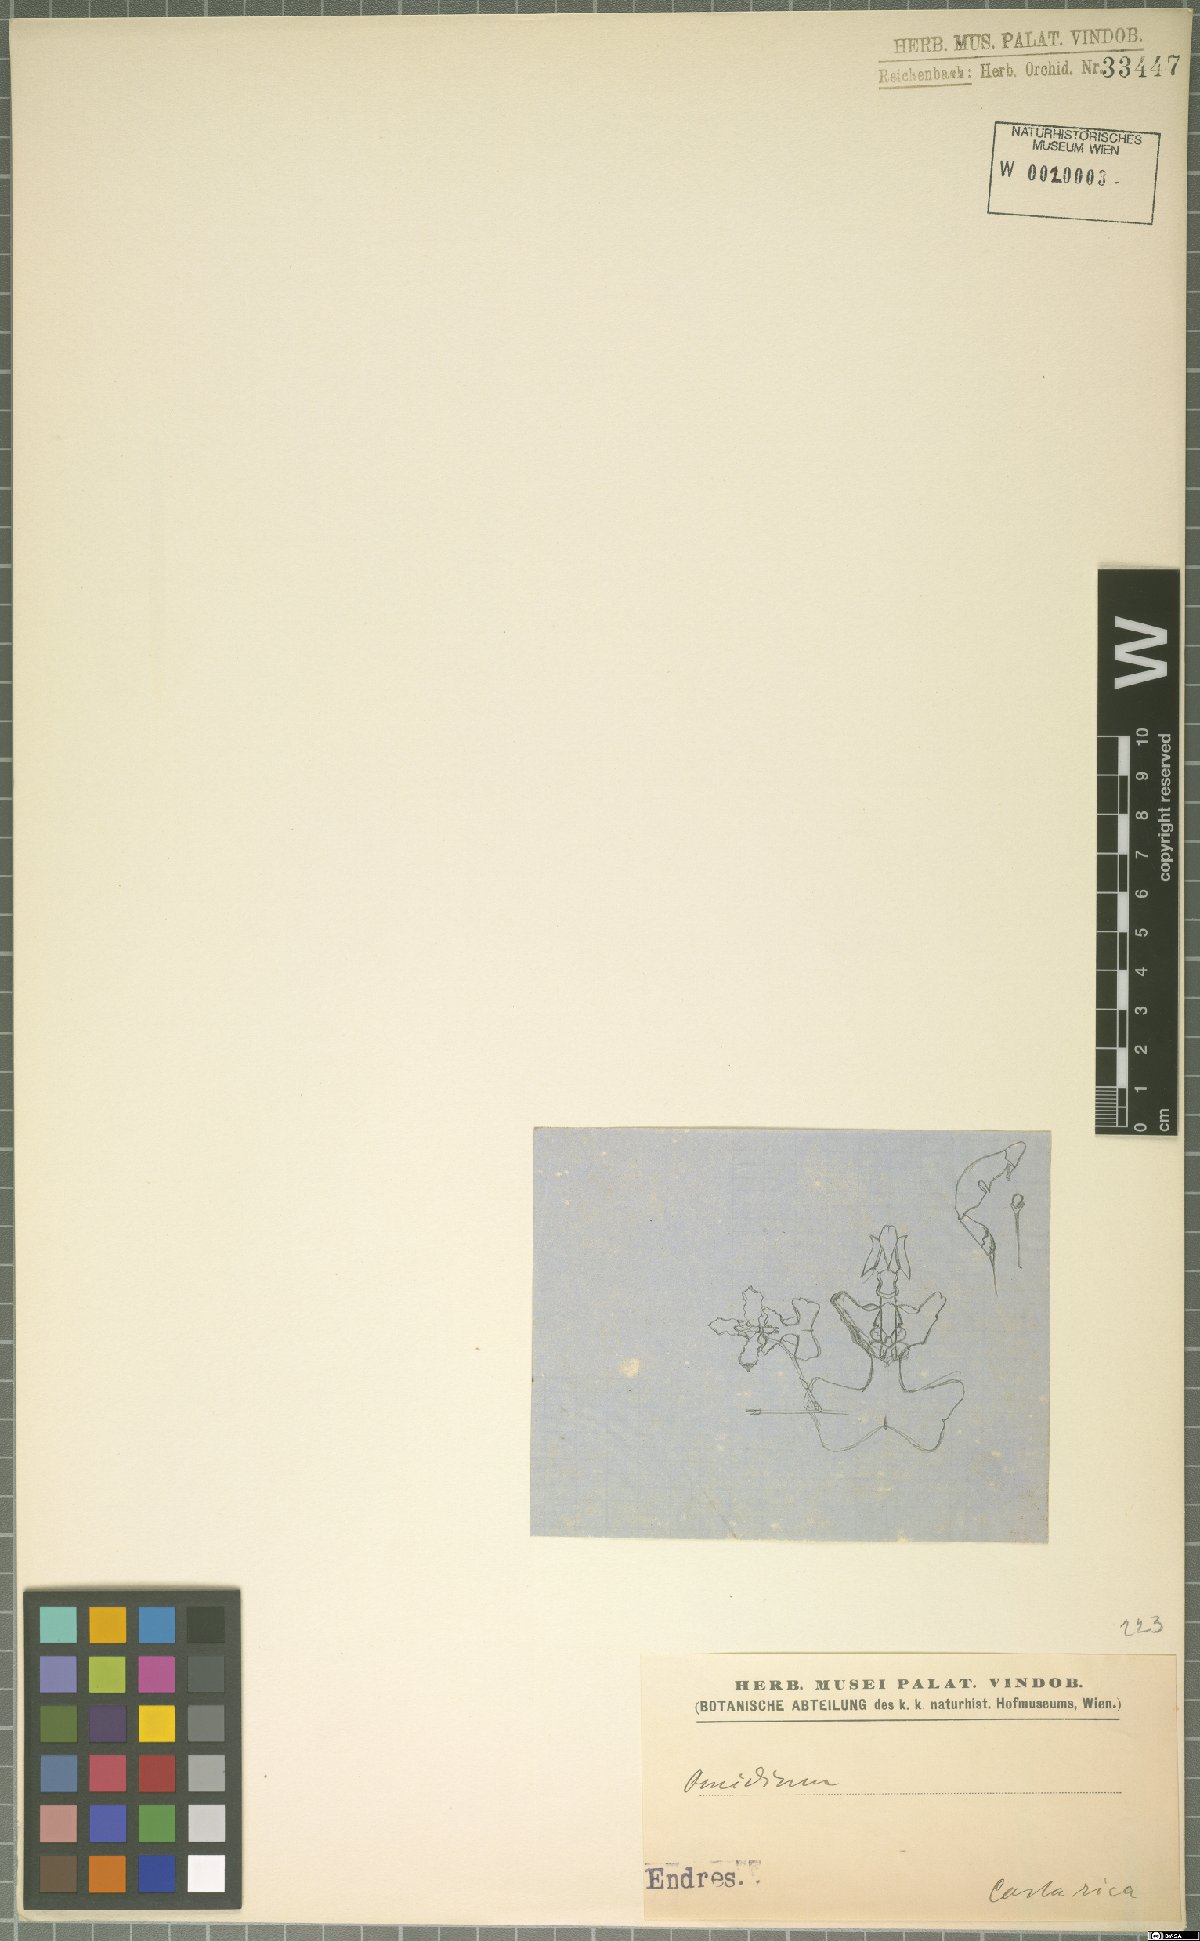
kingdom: Plantae
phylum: Tracheophyta
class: Liliopsida
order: Asparagales
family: Orchidaceae
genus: Oncidium
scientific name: Oncidium
